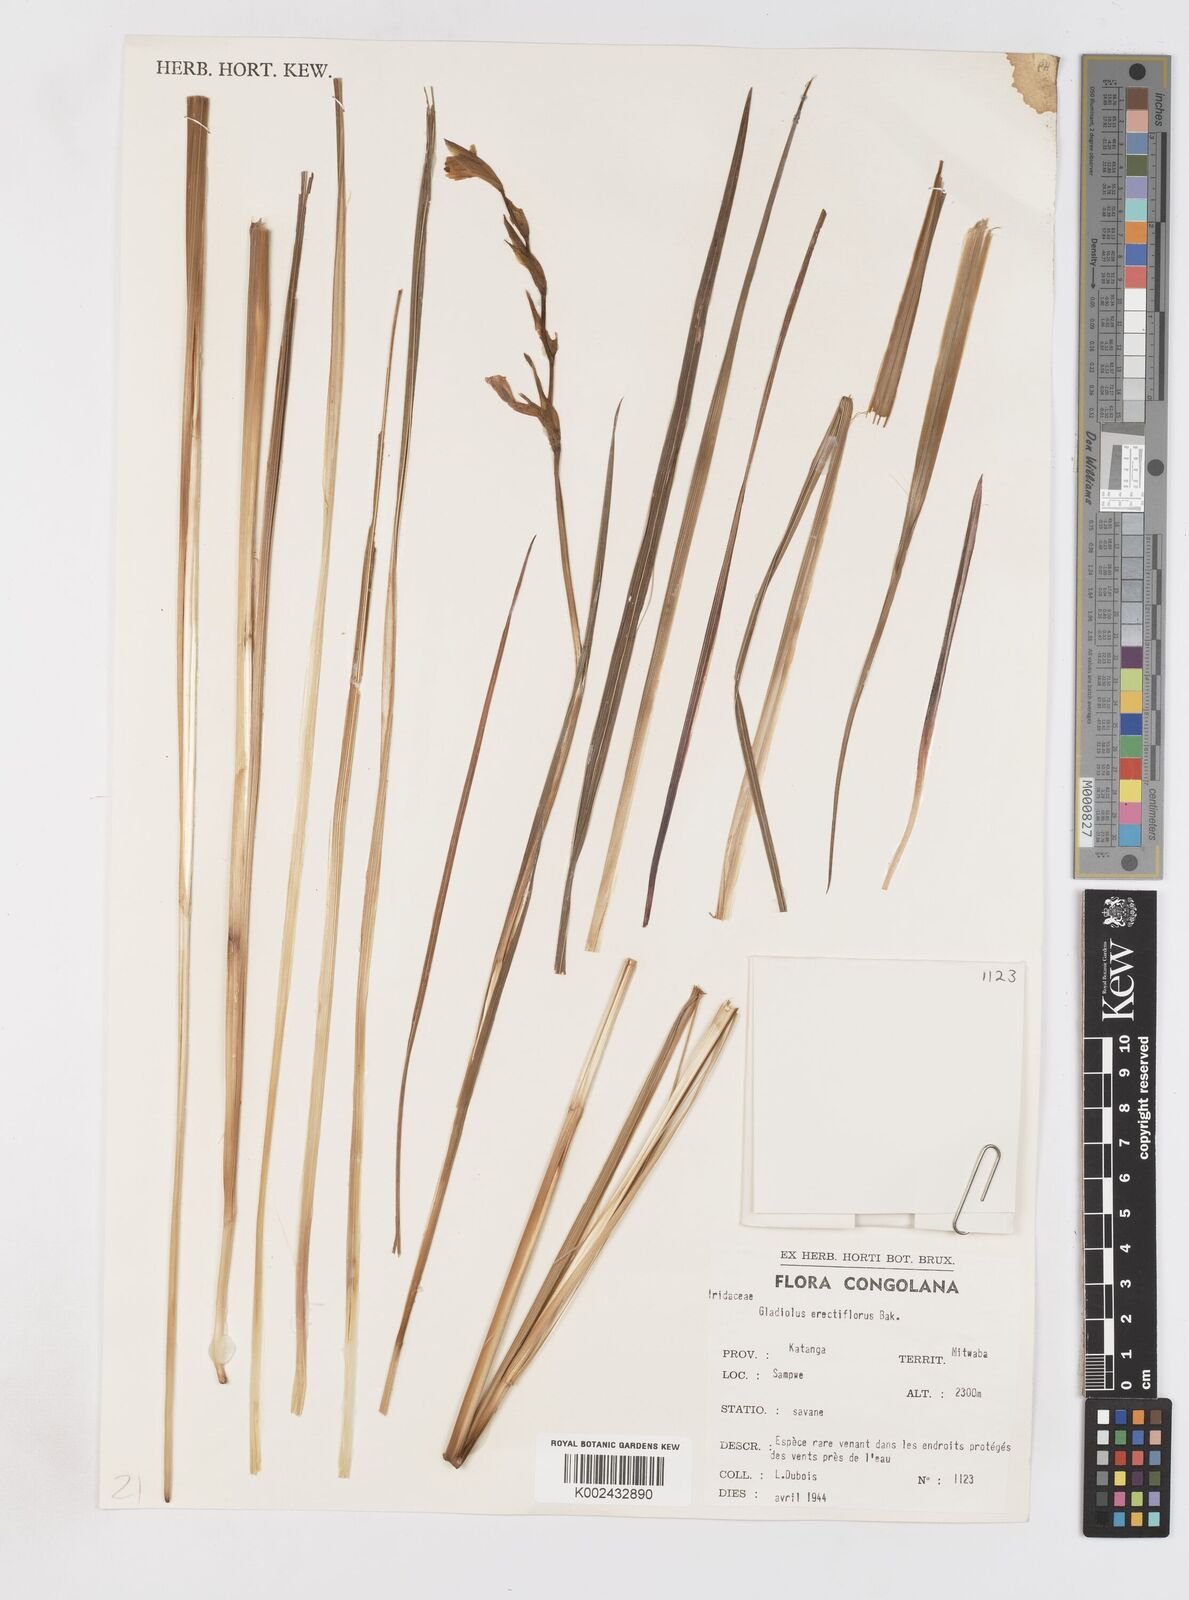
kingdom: Plantae
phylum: Tracheophyta
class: Liliopsida
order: Asparagales
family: Iridaceae
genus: Gladiolus
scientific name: Gladiolus erectiflorus
